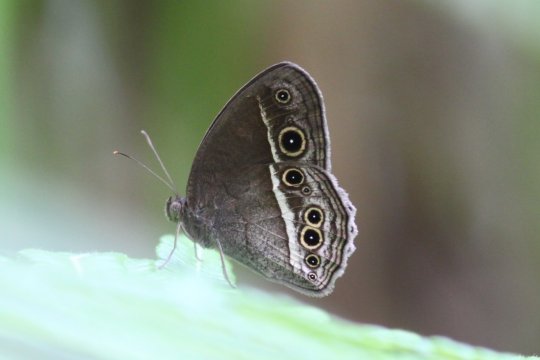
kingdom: Animalia
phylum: Arthropoda
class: Insecta
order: Lepidoptera
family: Nymphalidae
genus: Mycalesis
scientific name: Mycalesis mineus
